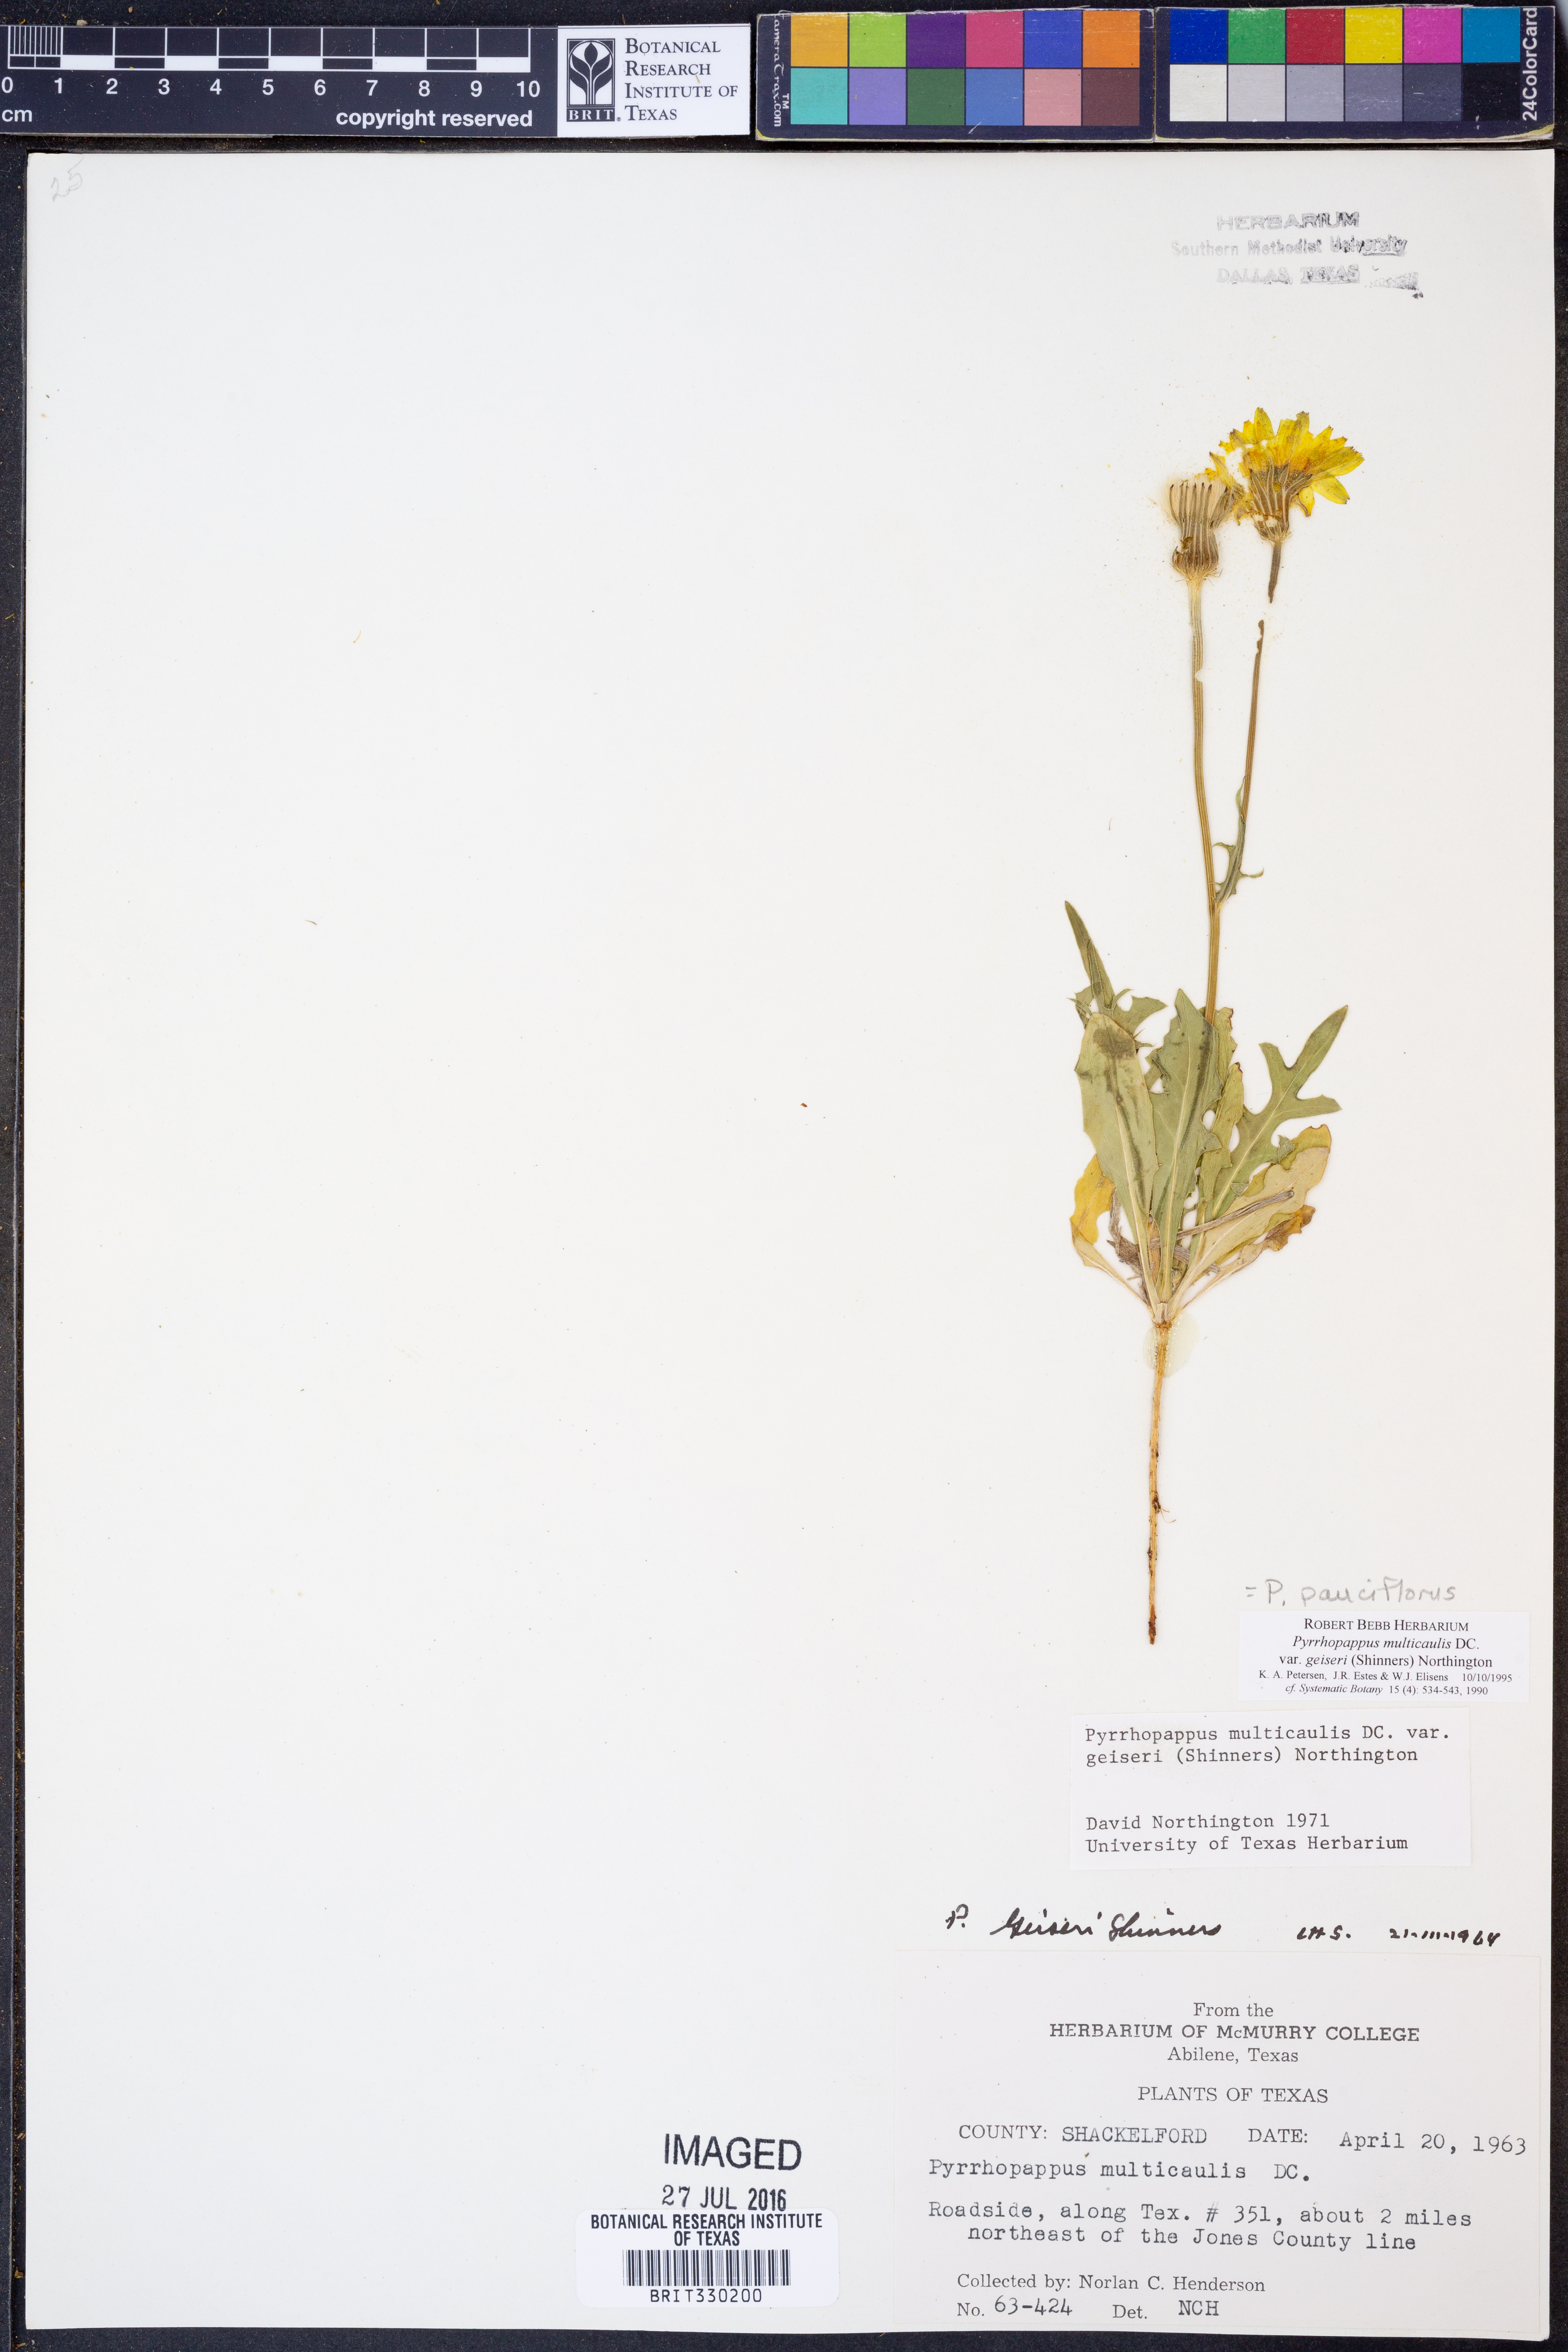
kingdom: Plantae
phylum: Tracheophyta
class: Magnoliopsida
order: Asterales
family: Asteraceae
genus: Pyrrhopappus
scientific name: Pyrrhopappus pauciflorus
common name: Texas false dandelion
